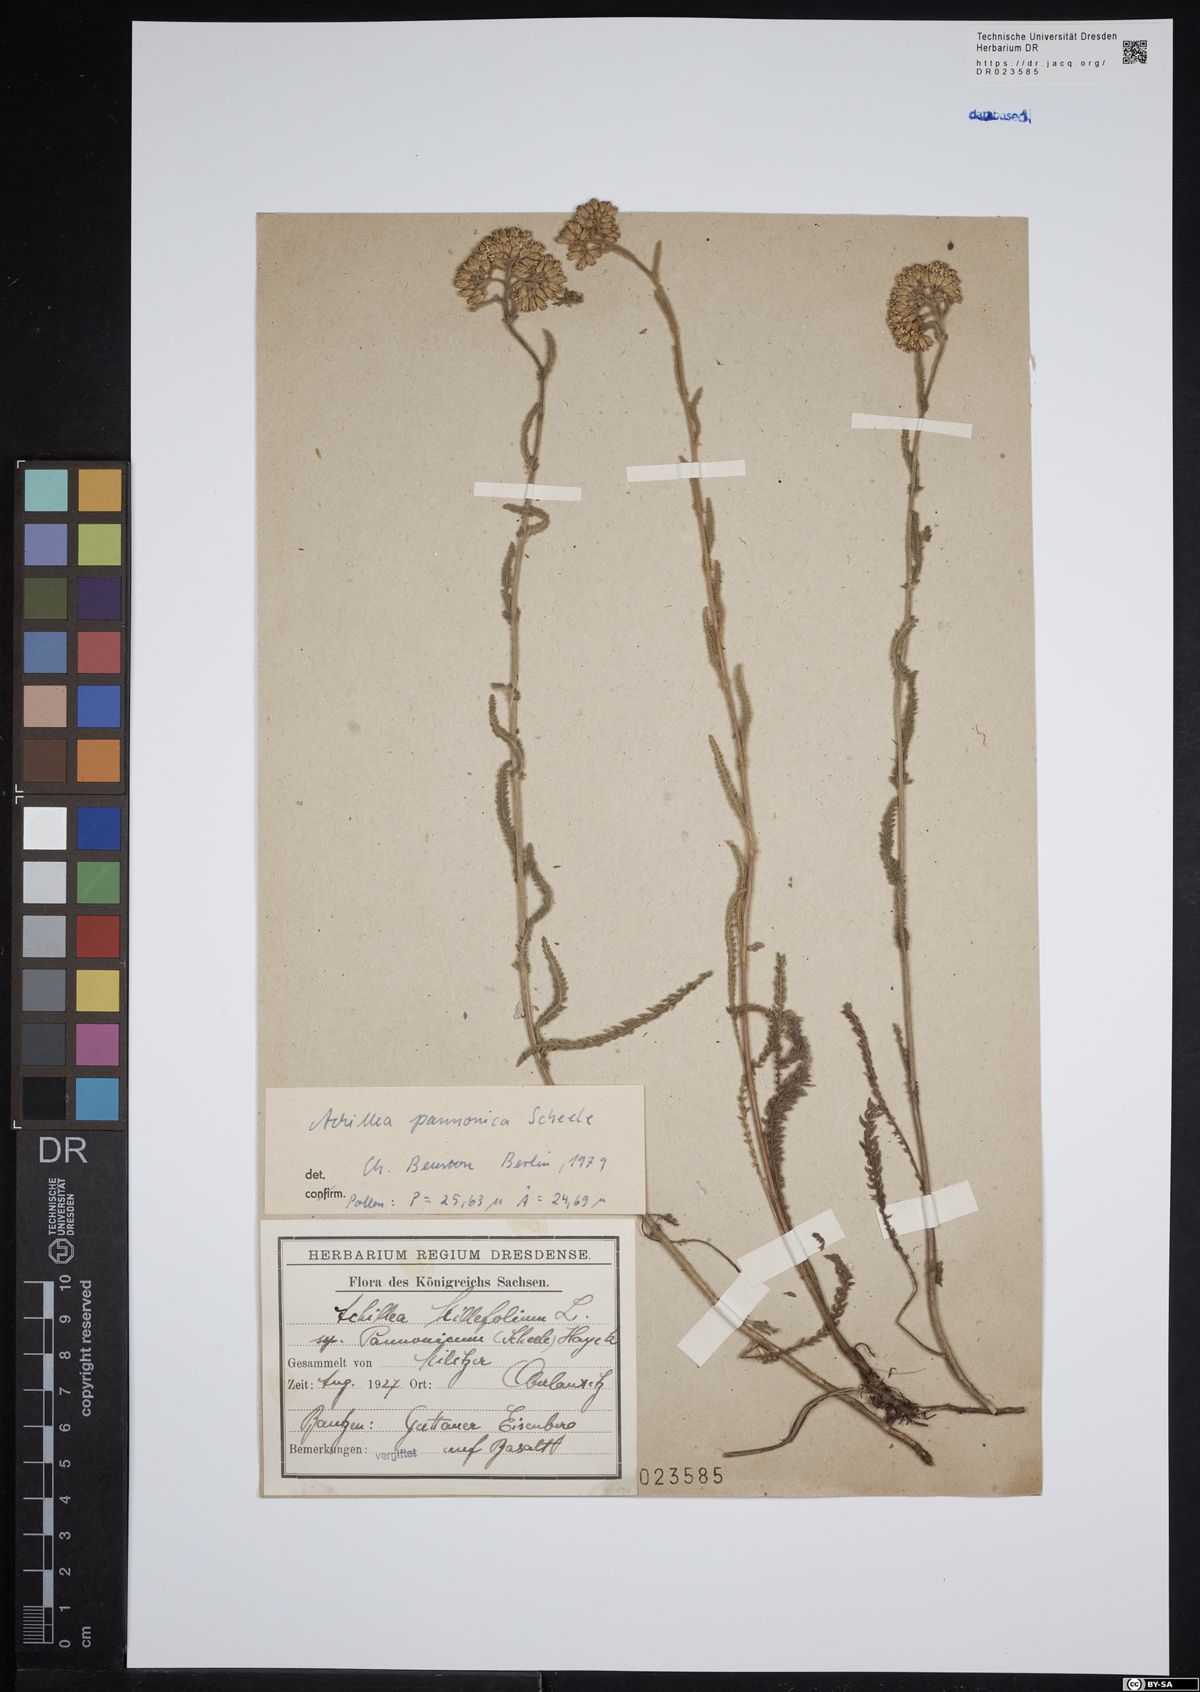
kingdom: Plantae
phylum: Tracheophyta
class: Magnoliopsida
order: Asterales
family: Asteraceae
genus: Achillea
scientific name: Achillea pannonica
